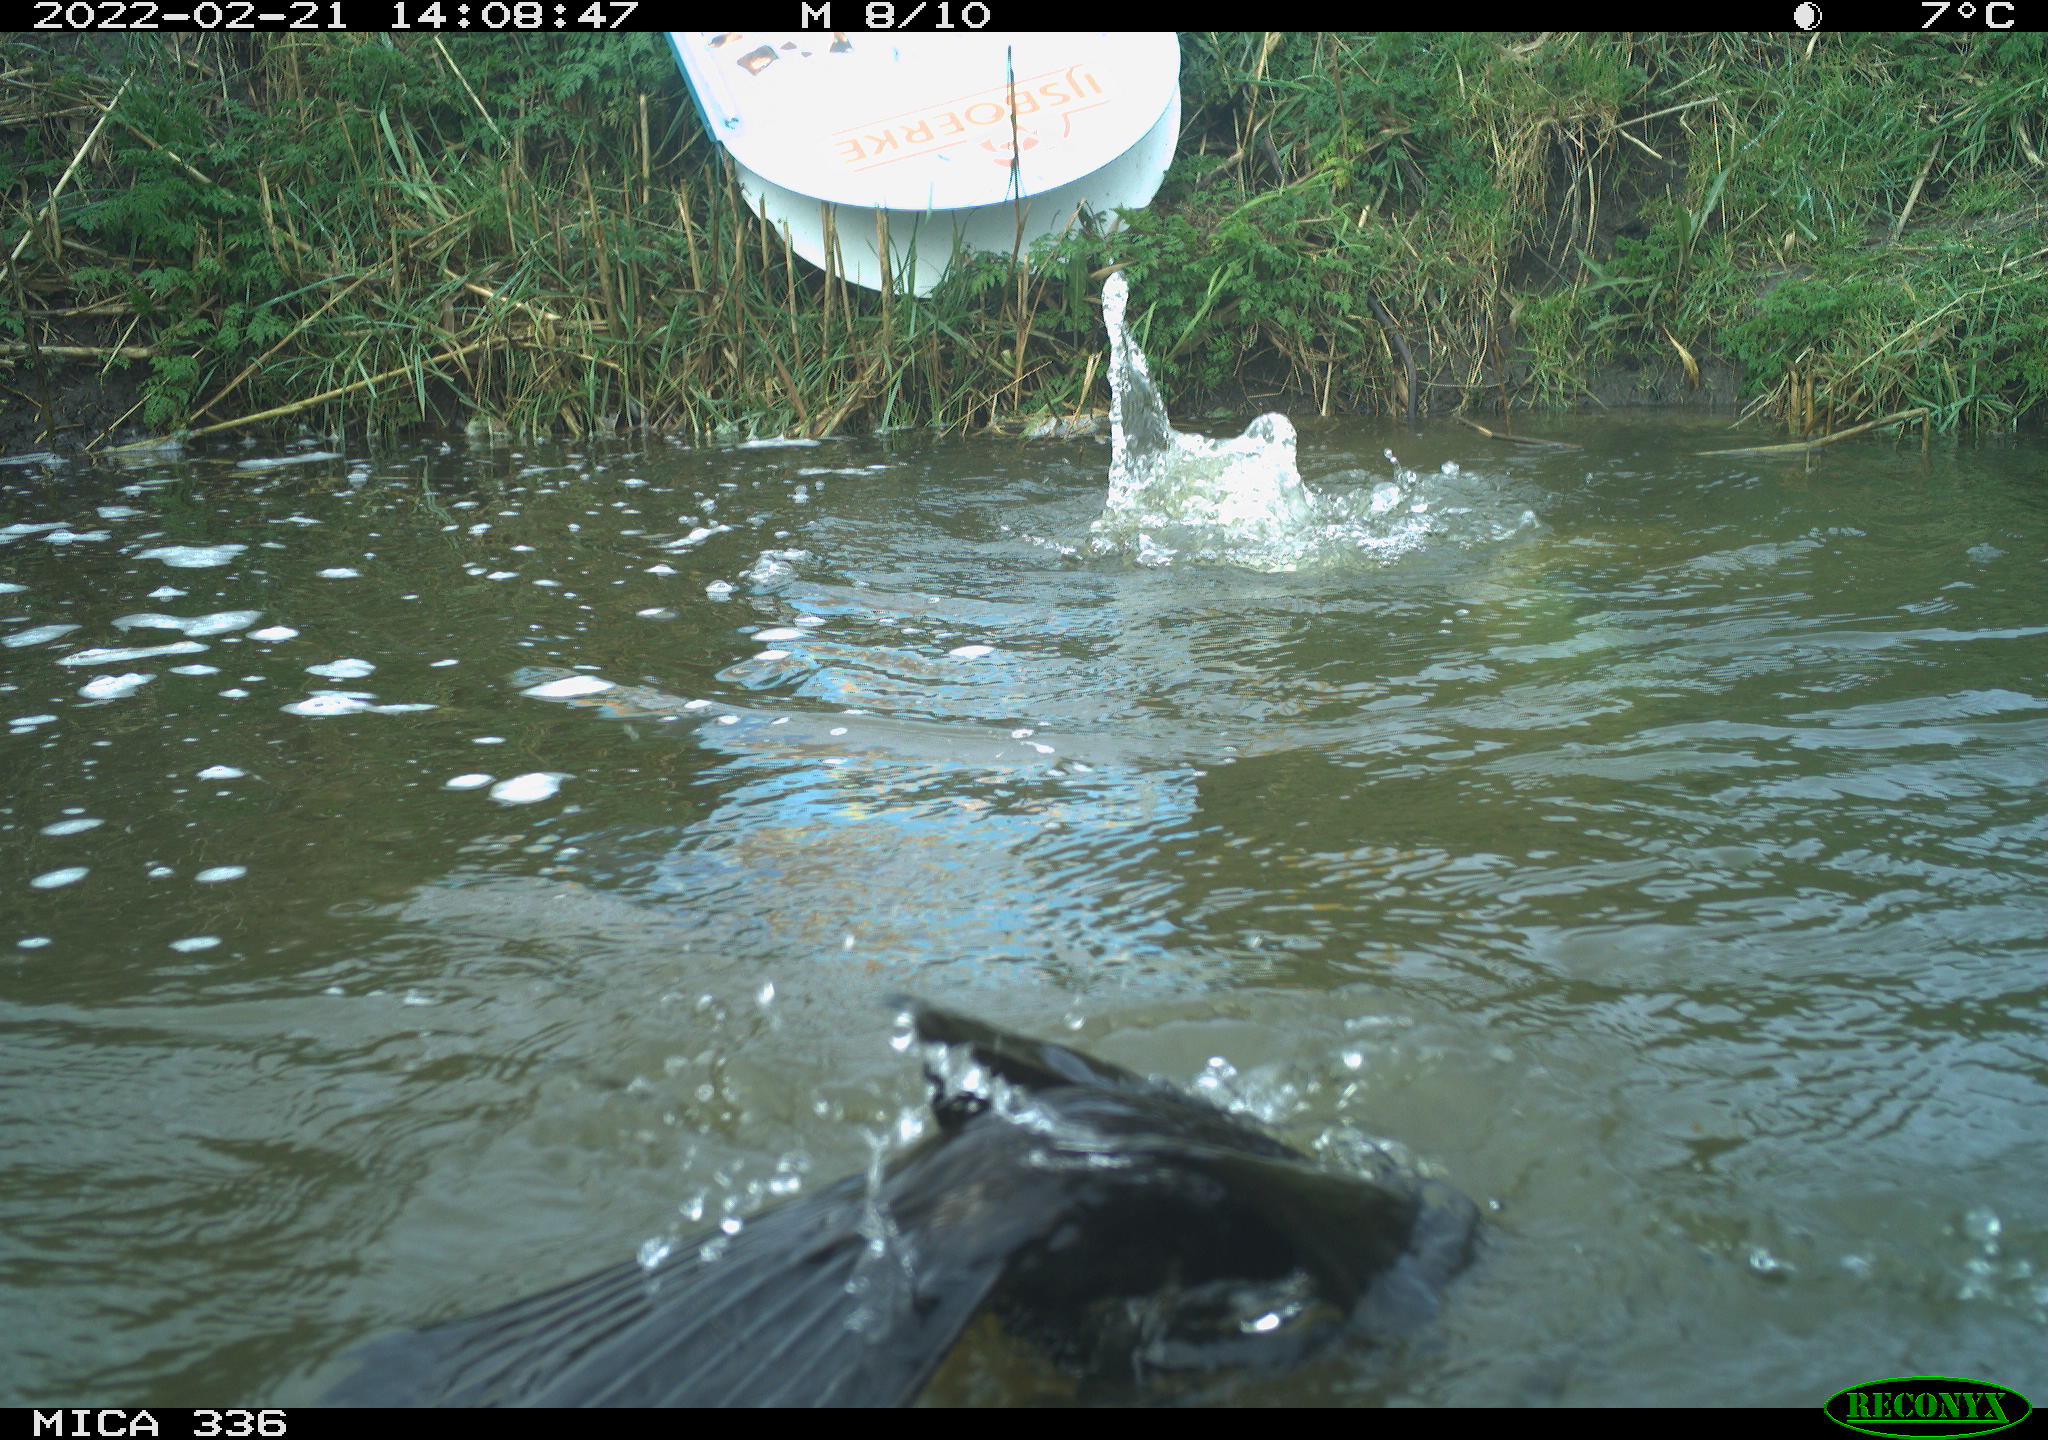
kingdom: Animalia
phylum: Chordata
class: Aves
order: Suliformes
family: Phalacrocoracidae
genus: Phalacrocorax
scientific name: Phalacrocorax carbo
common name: Great cormorant
